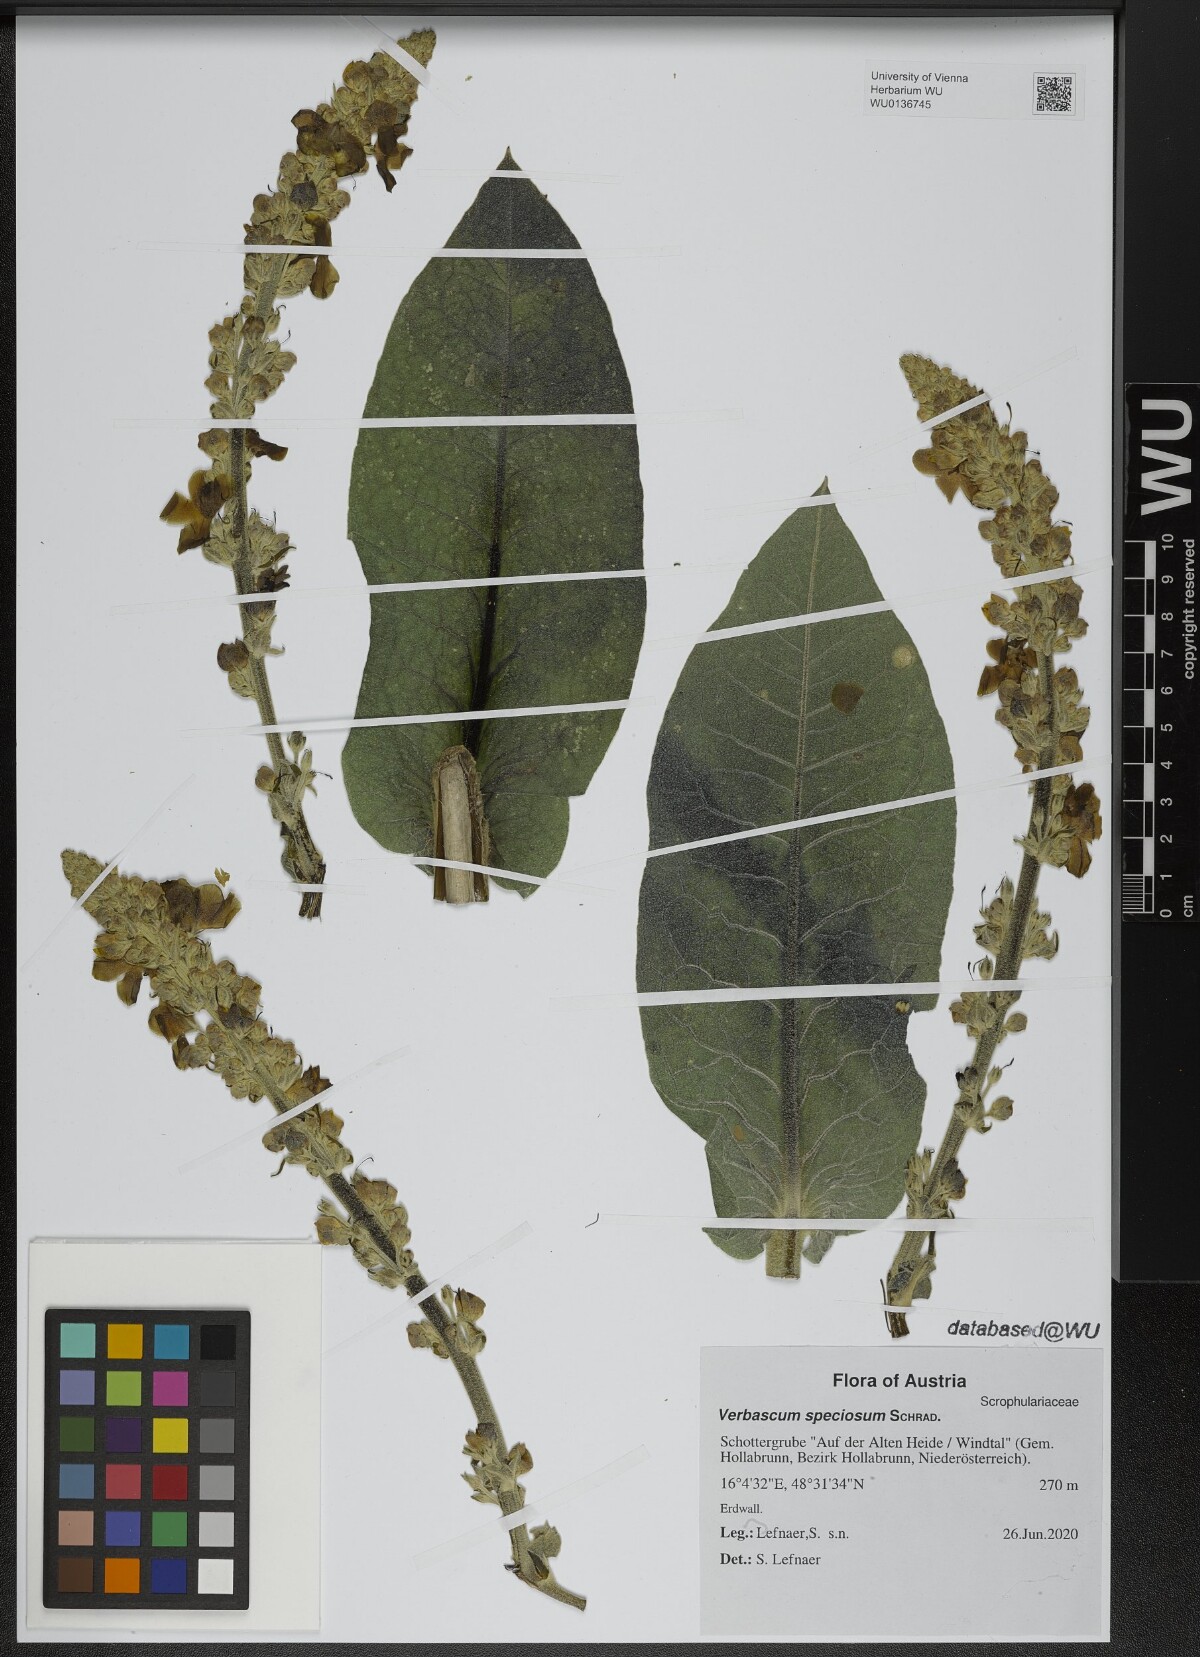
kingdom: Plantae
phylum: Tracheophyta
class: Magnoliopsida
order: Lamiales
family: Scrophulariaceae
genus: Verbascum
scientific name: Verbascum speciosum
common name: Hungarian mullein
